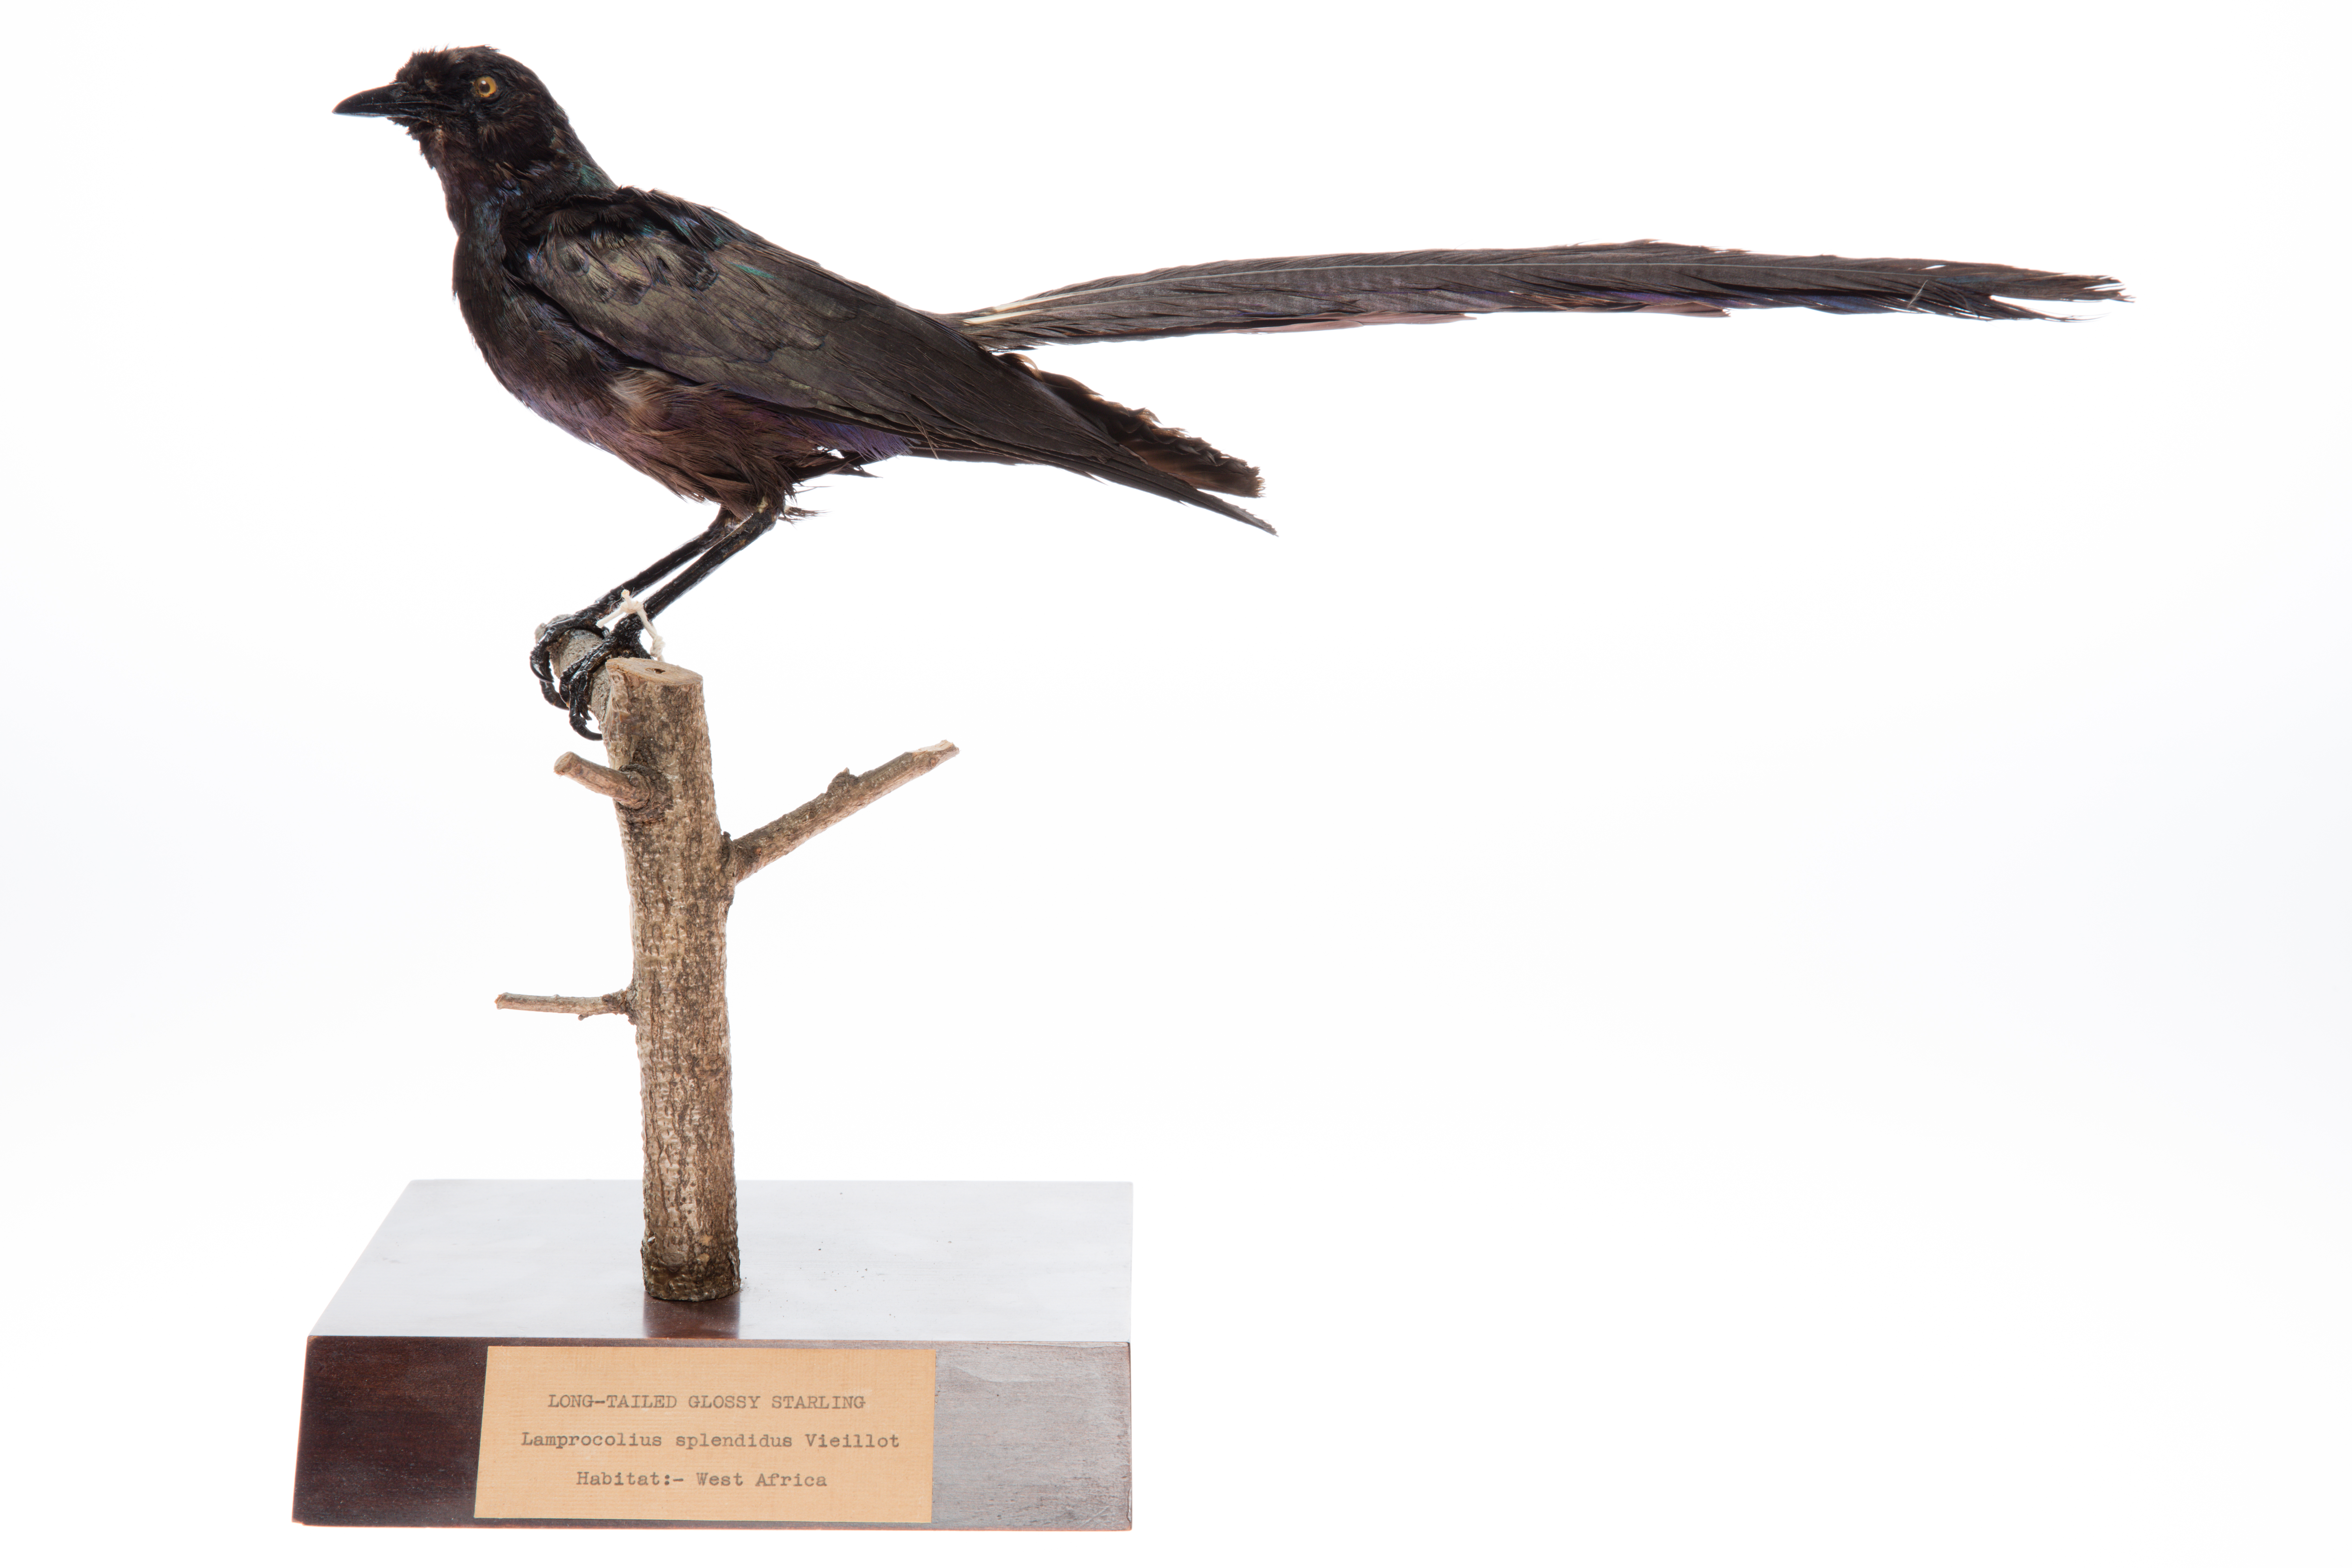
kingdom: Animalia
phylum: Chordata
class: Aves
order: Passeriformes
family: Sturnidae
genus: Lamprotornis
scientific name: Lamprotornis caudatus
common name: Long-tailed glossy starling
